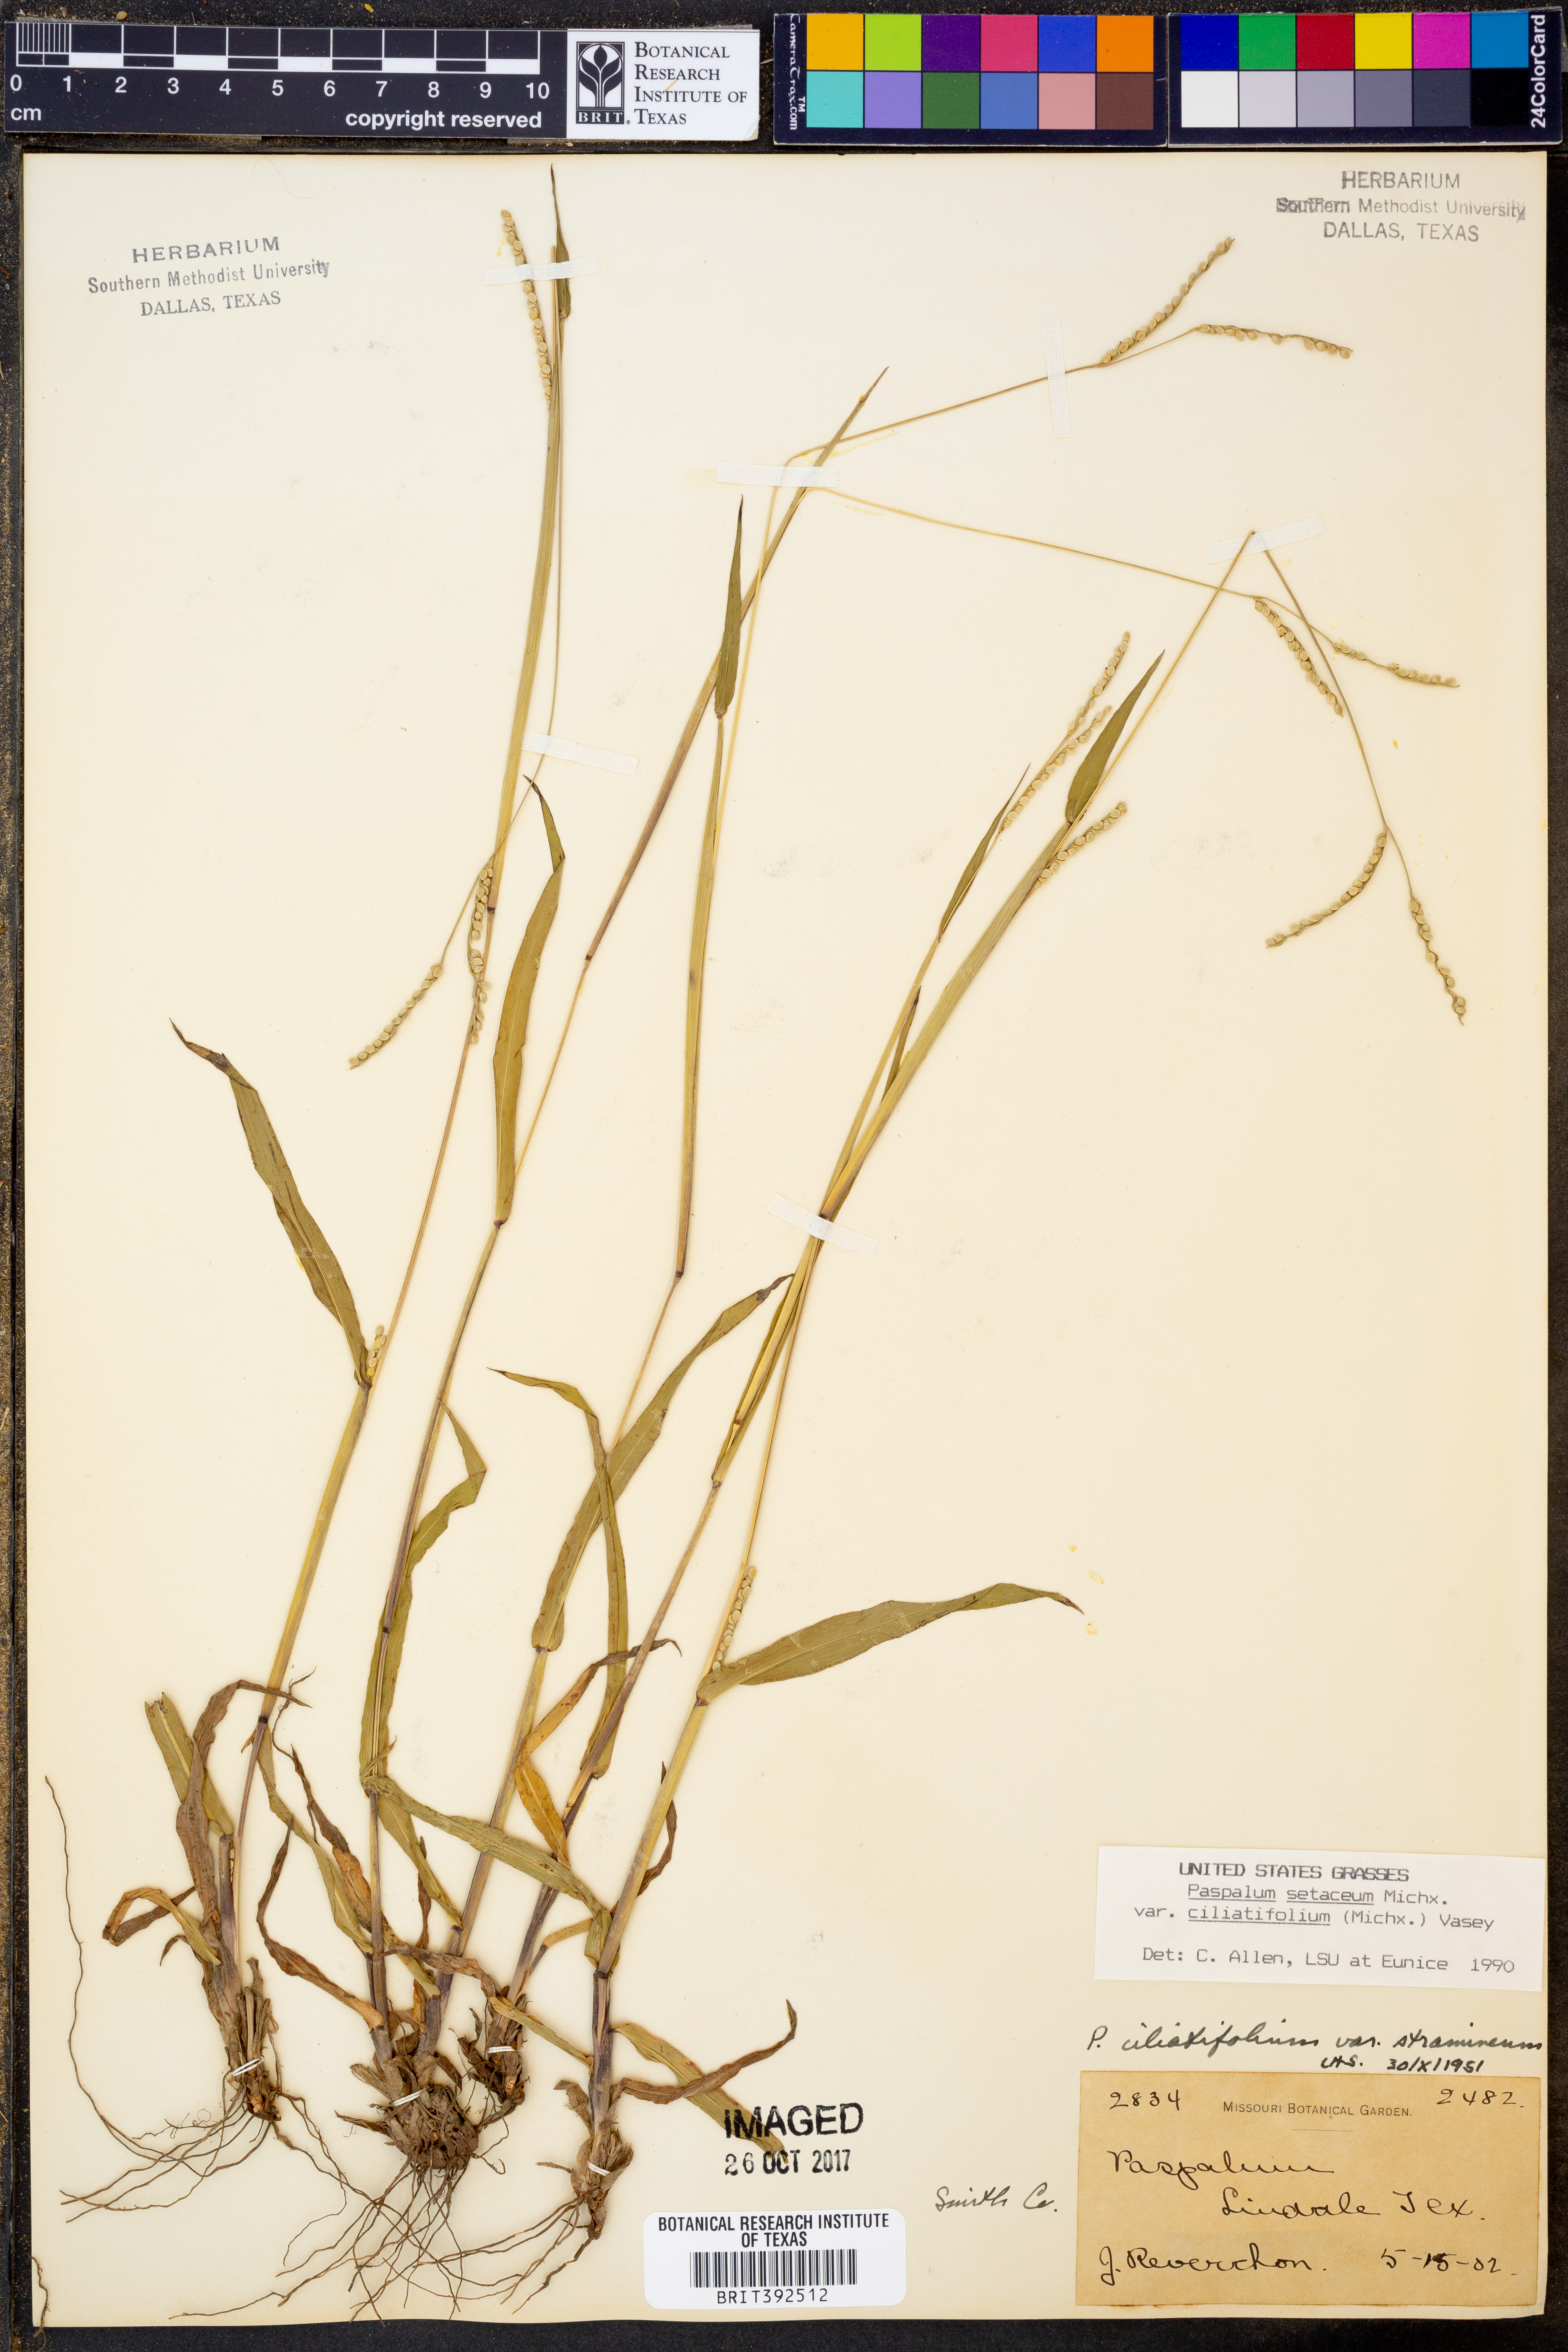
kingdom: Plantae
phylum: Tracheophyta
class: Liliopsida
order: Poales
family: Poaceae
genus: Paspalum
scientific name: Paspalum setaceum
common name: Slender paspalum
